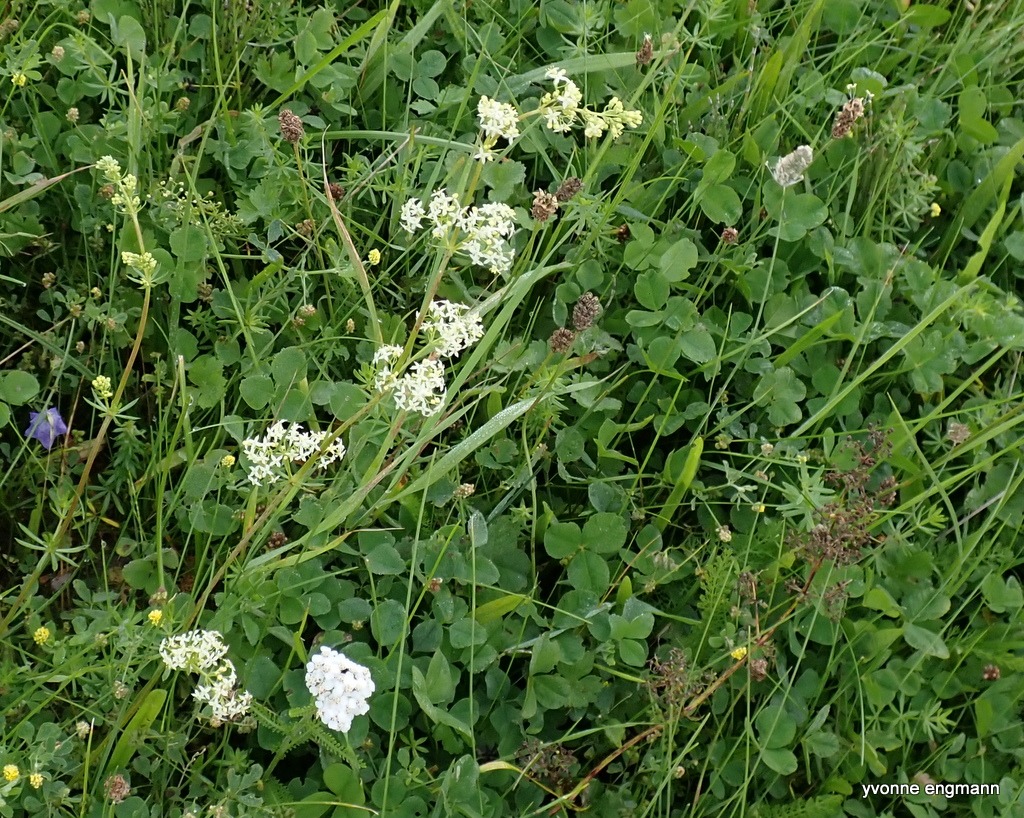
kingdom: Plantae
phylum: Tracheophyta
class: Magnoliopsida
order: Gentianales
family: Rubiaceae
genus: Galium
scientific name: Galium mollugo
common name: Hvid snerre
